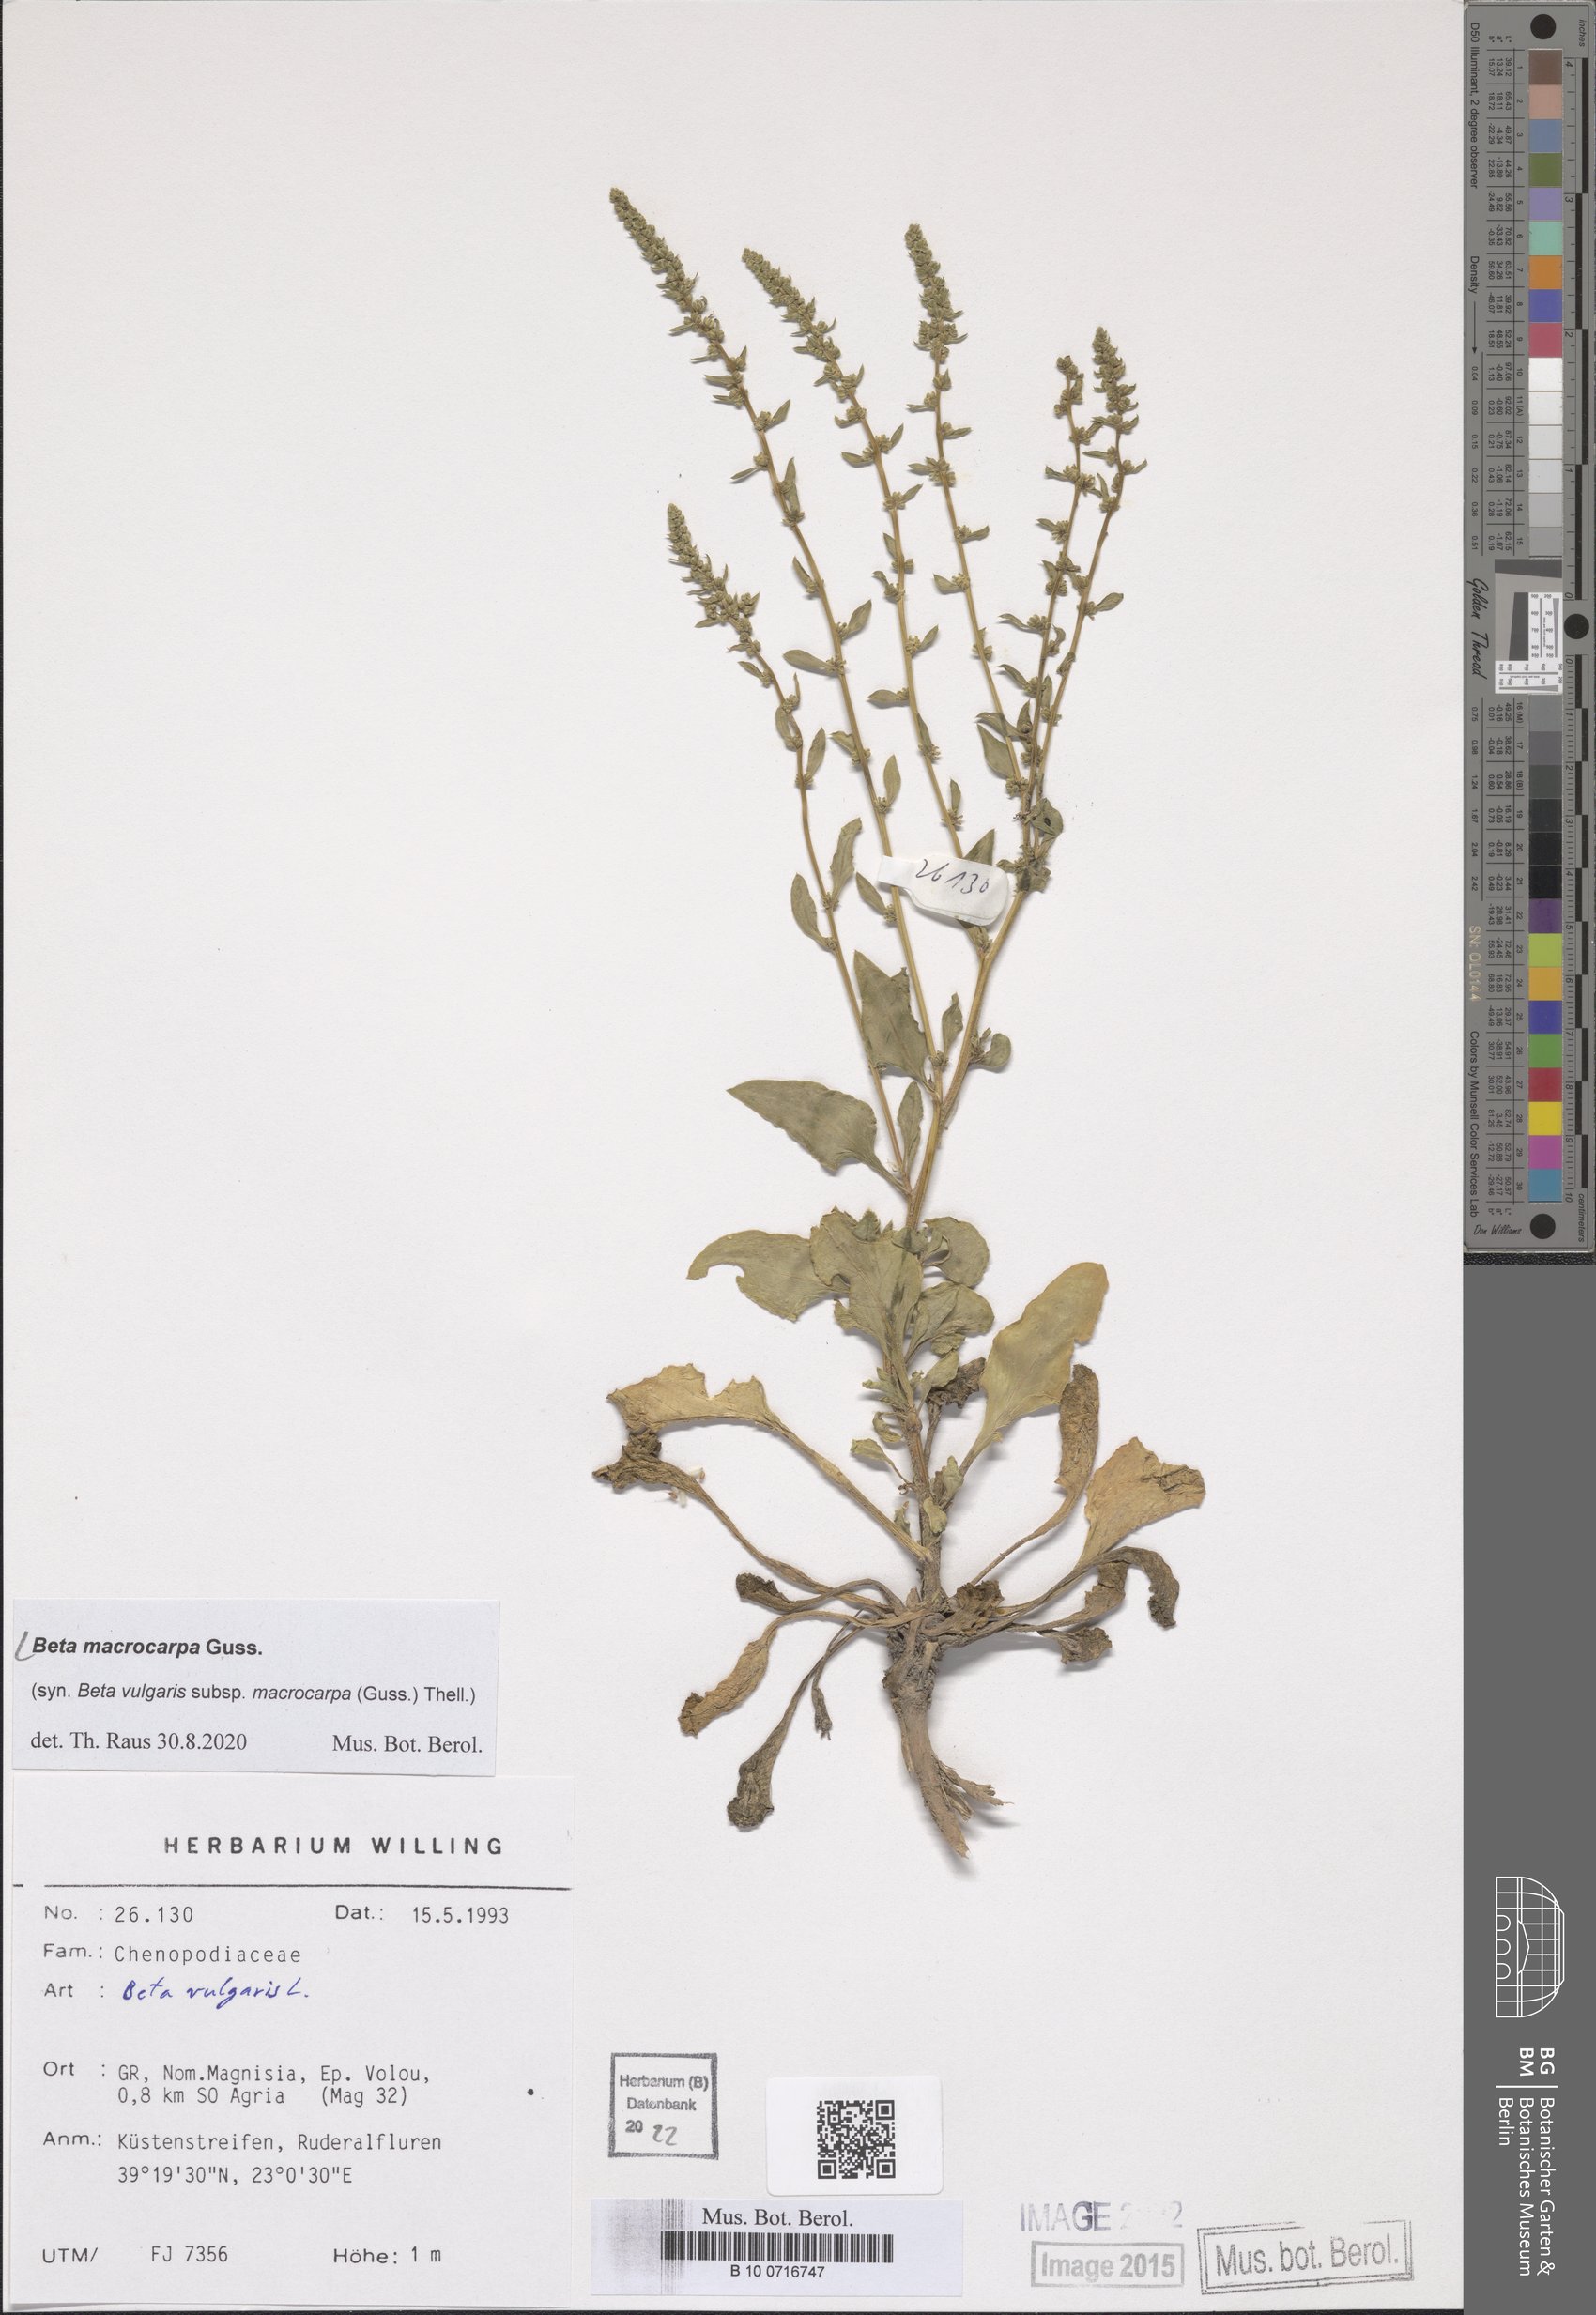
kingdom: Plantae
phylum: Tracheophyta
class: Magnoliopsida
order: Caryophyllales
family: Amaranthaceae
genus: Beta
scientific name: Beta macrocarpa
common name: Beet
